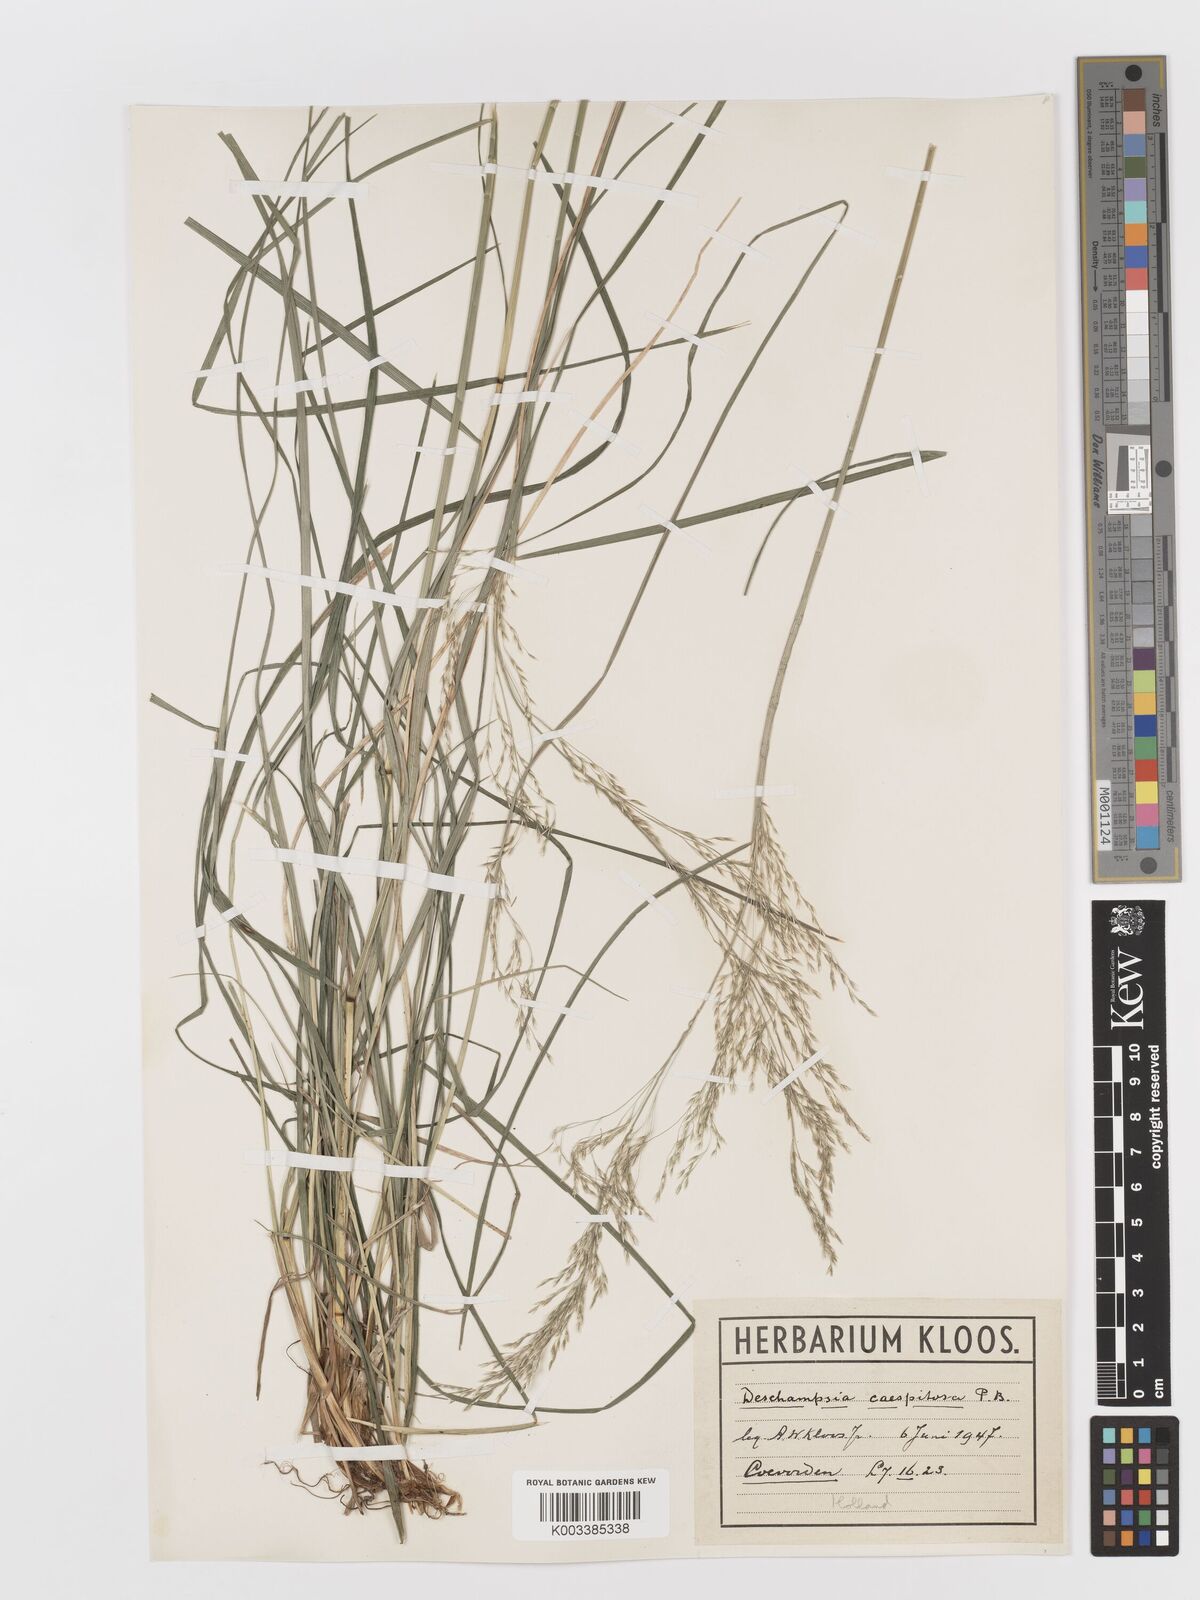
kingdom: Plantae
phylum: Tracheophyta
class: Liliopsida
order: Poales
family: Poaceae
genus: Deschampsia
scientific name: Deschampsia cespitosa
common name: Tufted hair-grass
